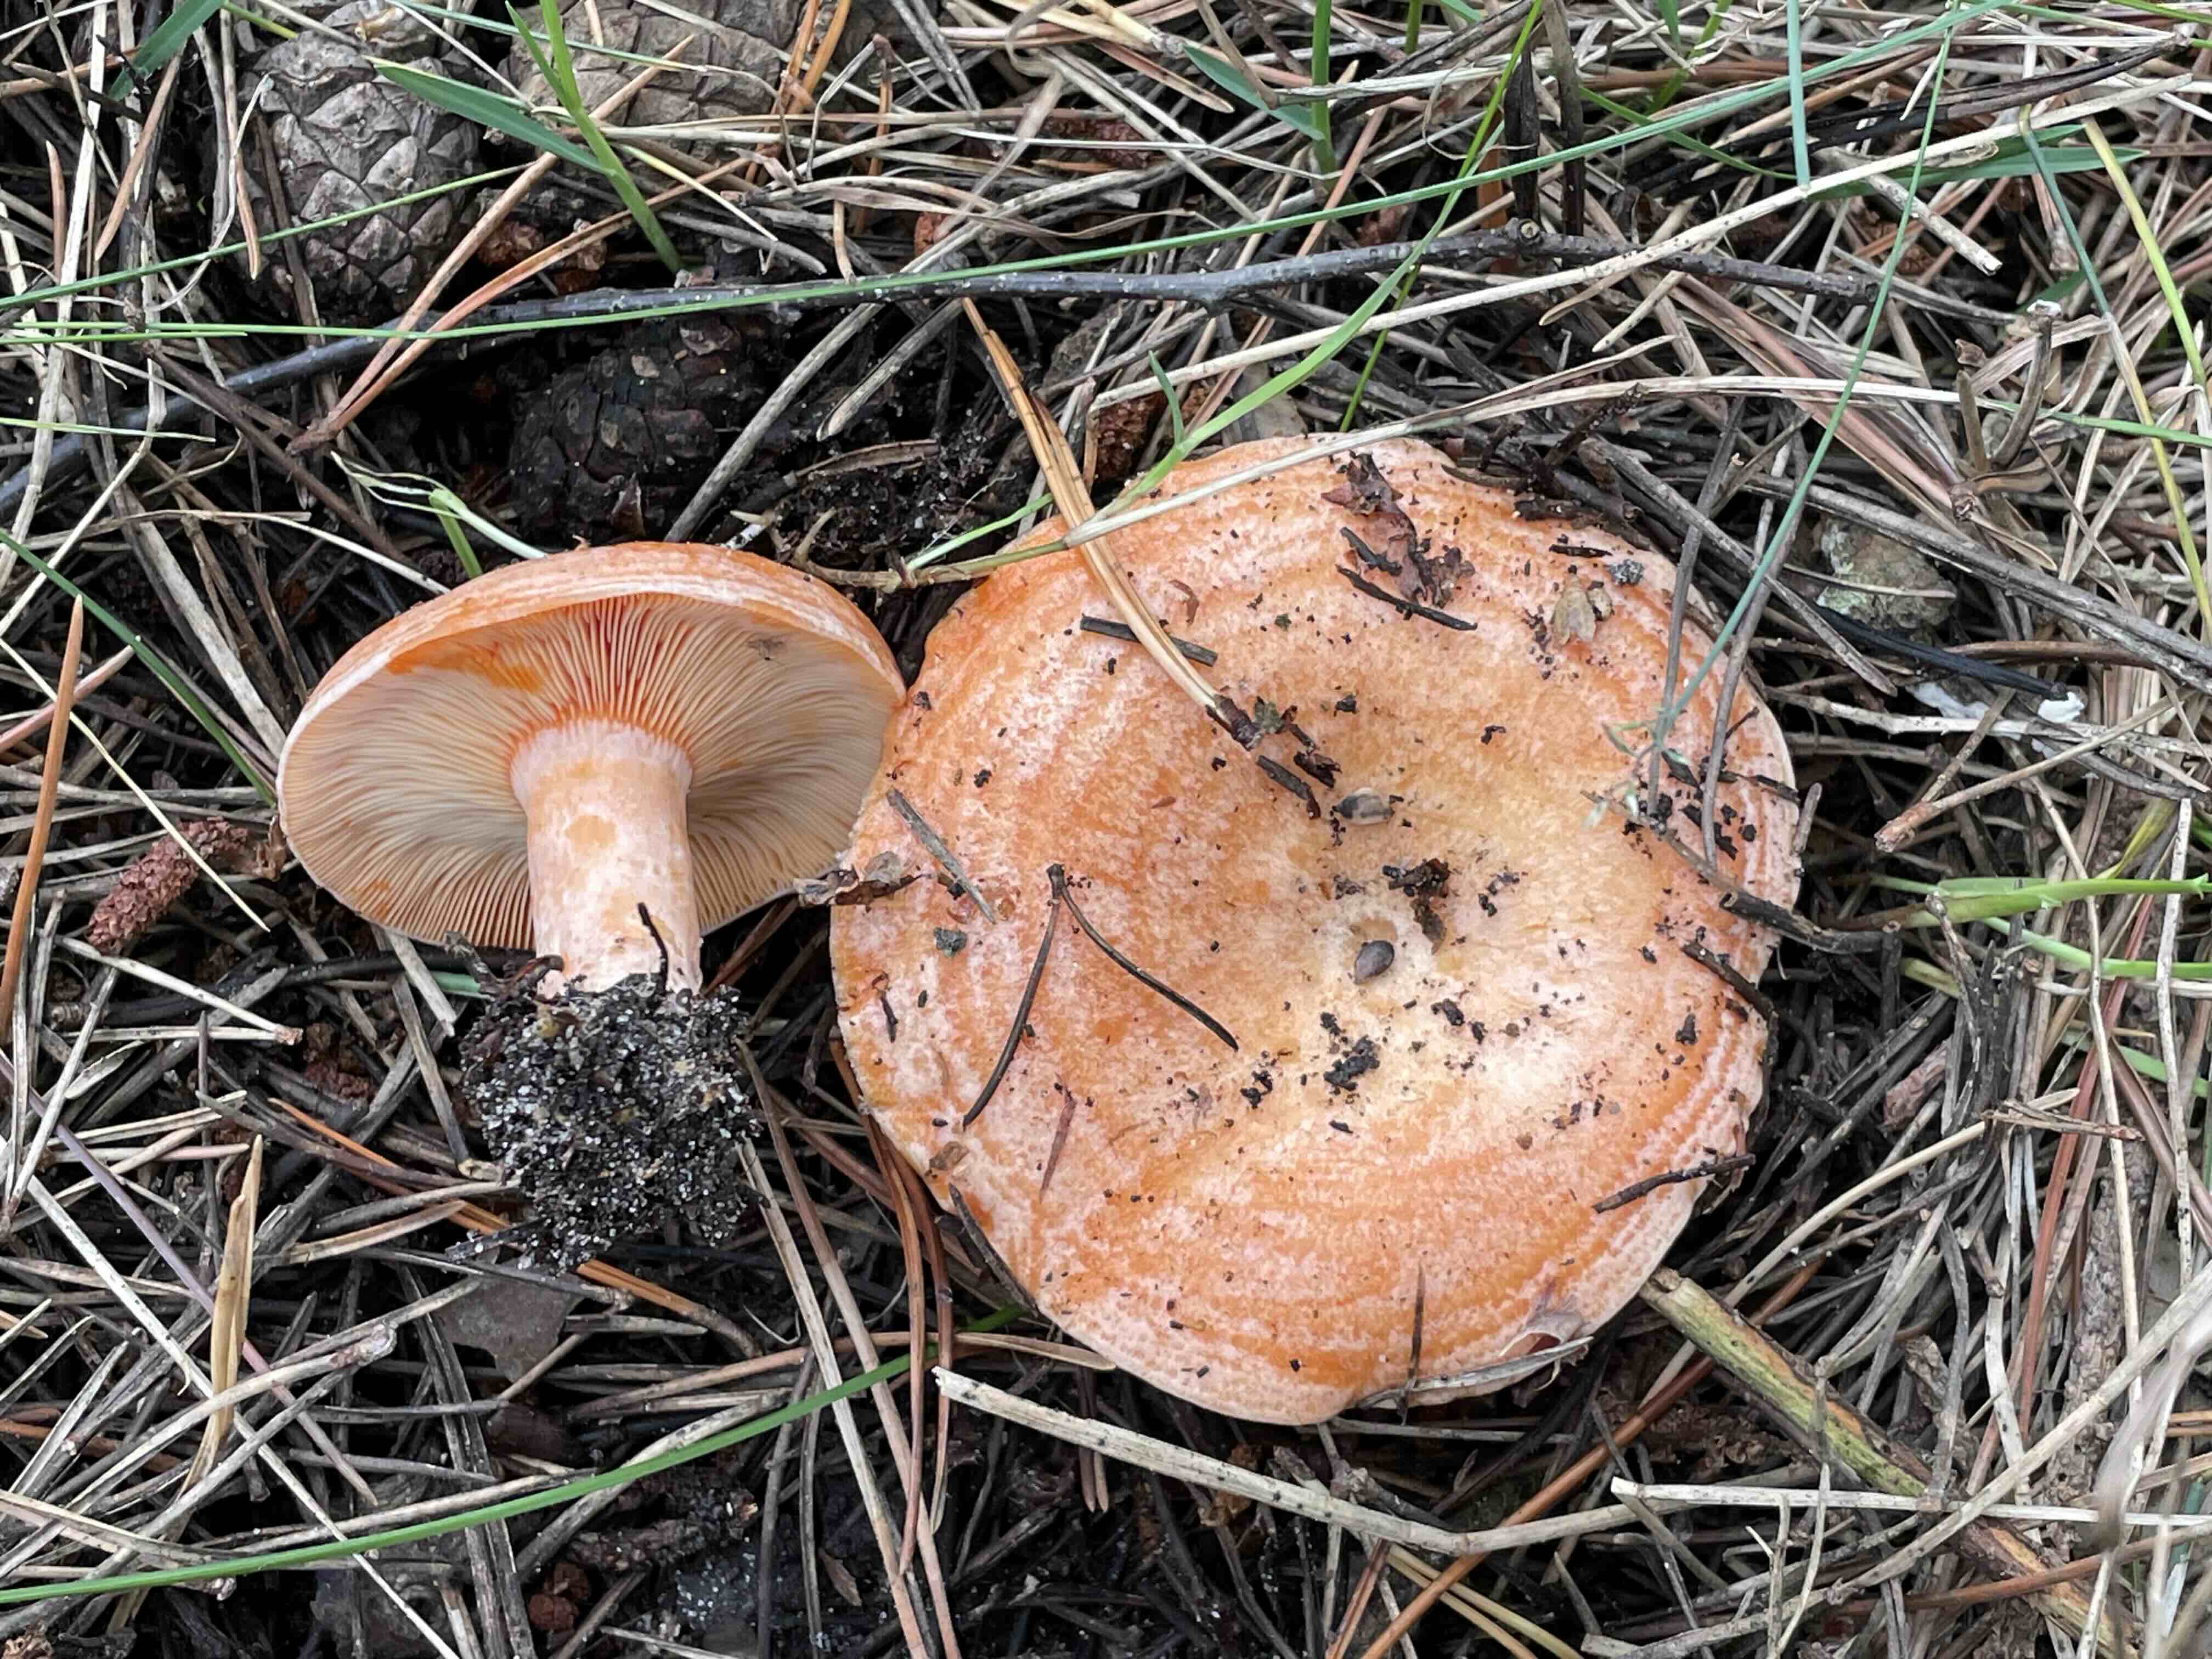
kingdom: Fungi
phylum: Basidiomycota
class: Agaricomycetes
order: Russulales
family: Russulaceae
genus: Lactarius
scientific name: Lactarius deliciosus
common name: velsmagende mælkehat
